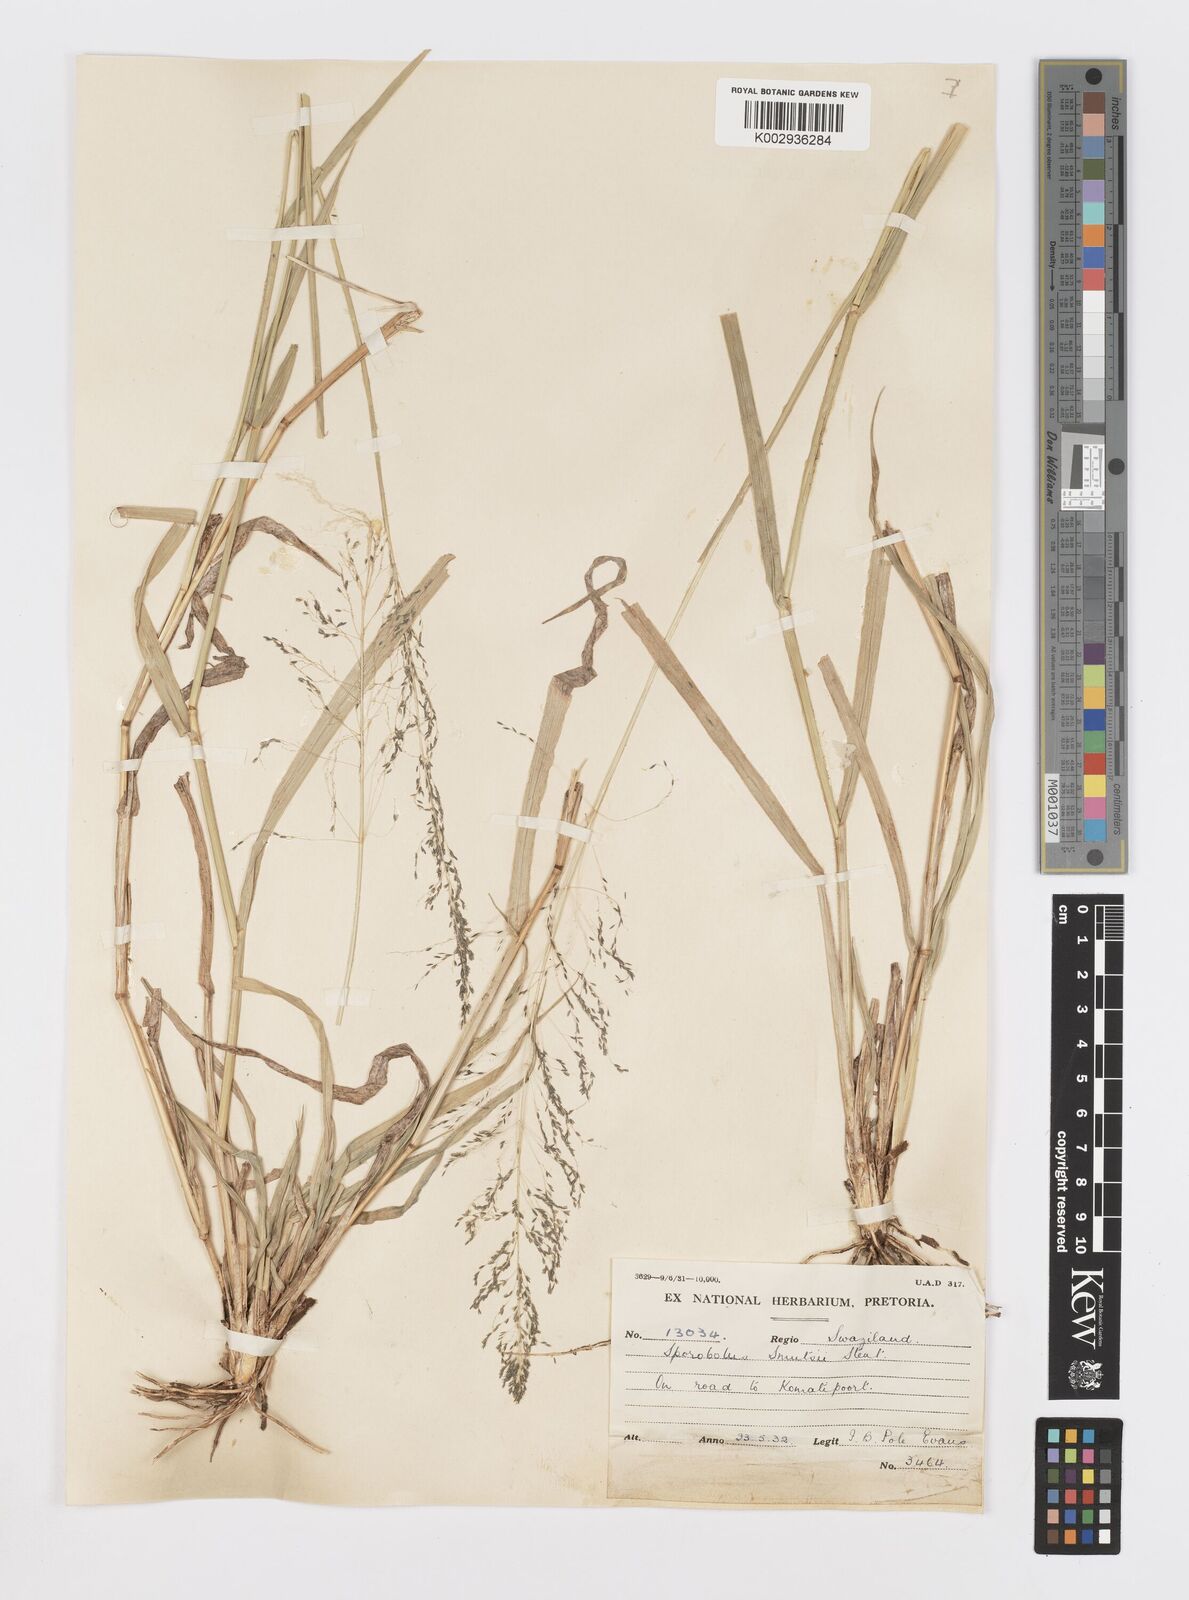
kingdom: Plantae
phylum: Tracheophyta
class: Liliopsida
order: Poales
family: Poaceae
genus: Sporobolus
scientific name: Sporobolus ioclados
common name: Pan dropseed
